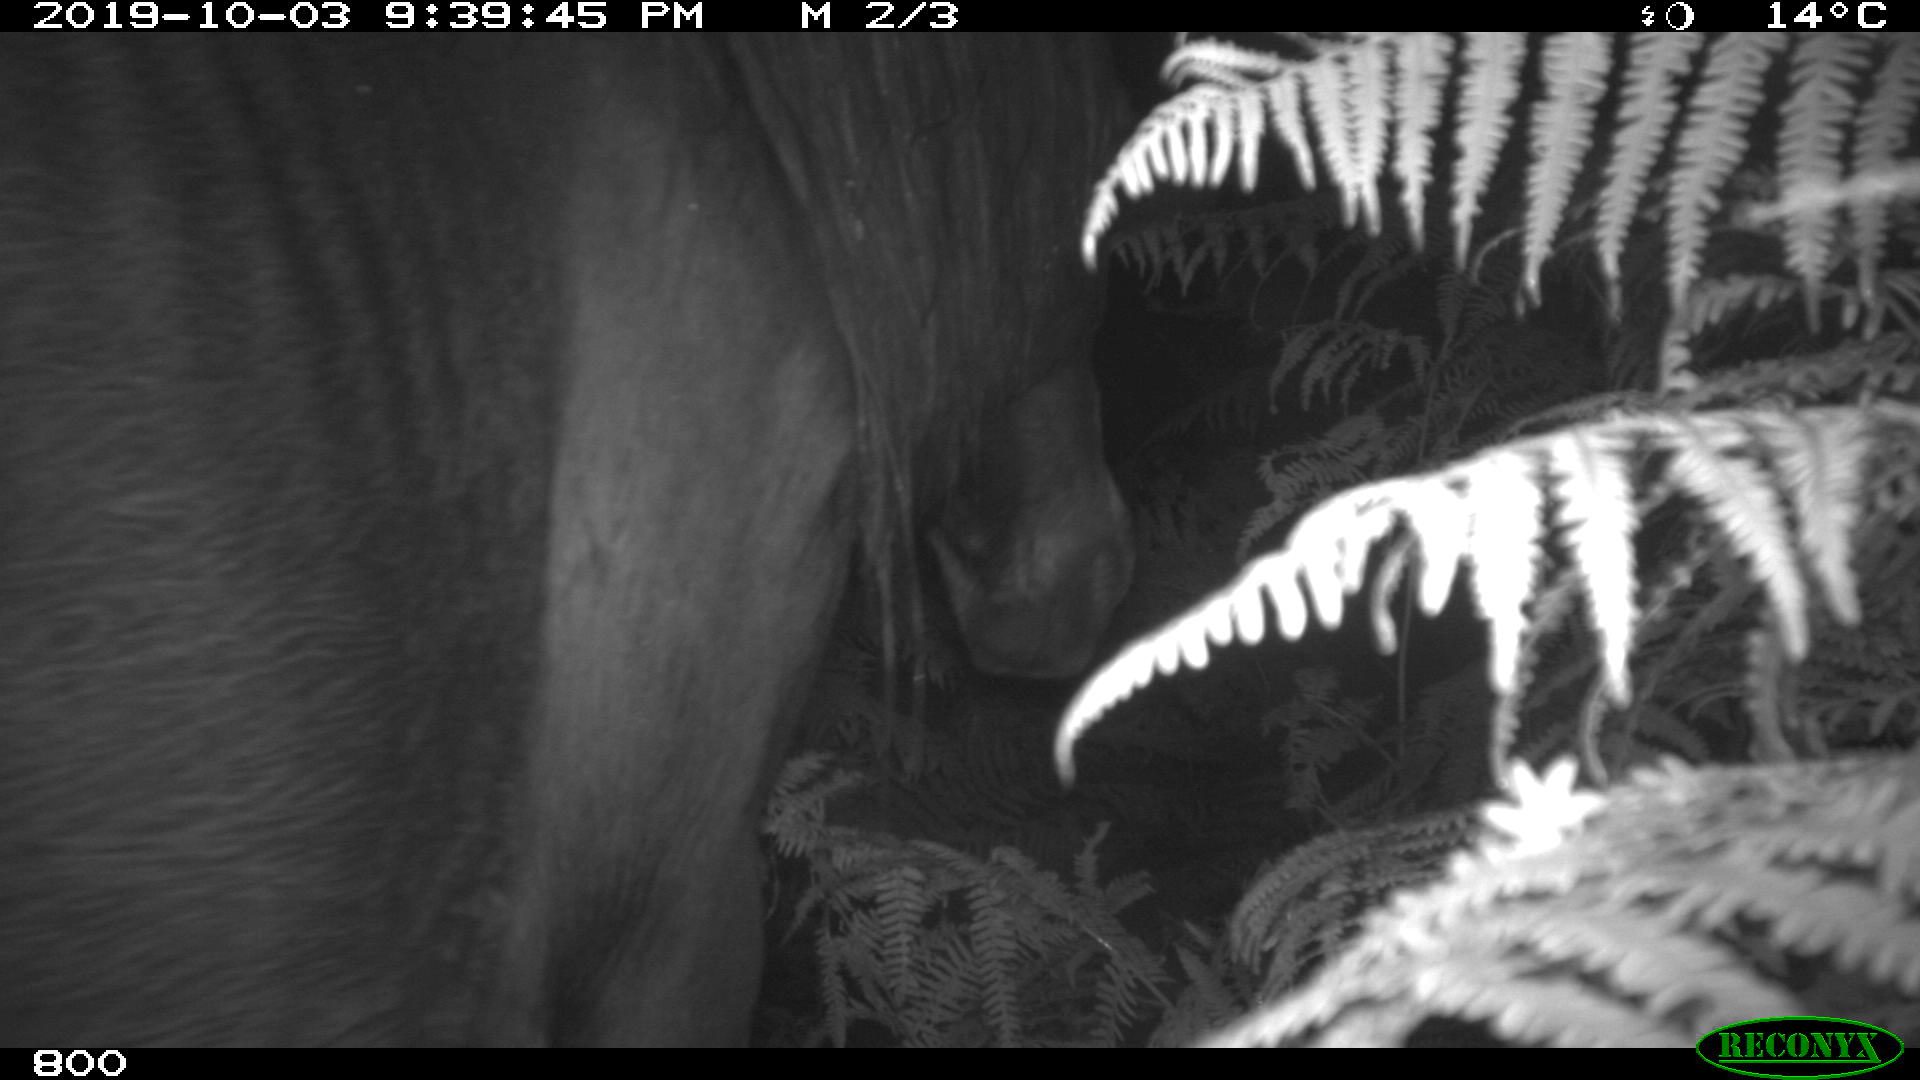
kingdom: Animalia
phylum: Chordata
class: Mammalia
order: Perissodactyla
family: Equidae
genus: Equus
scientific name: Equus caballus
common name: Horse
